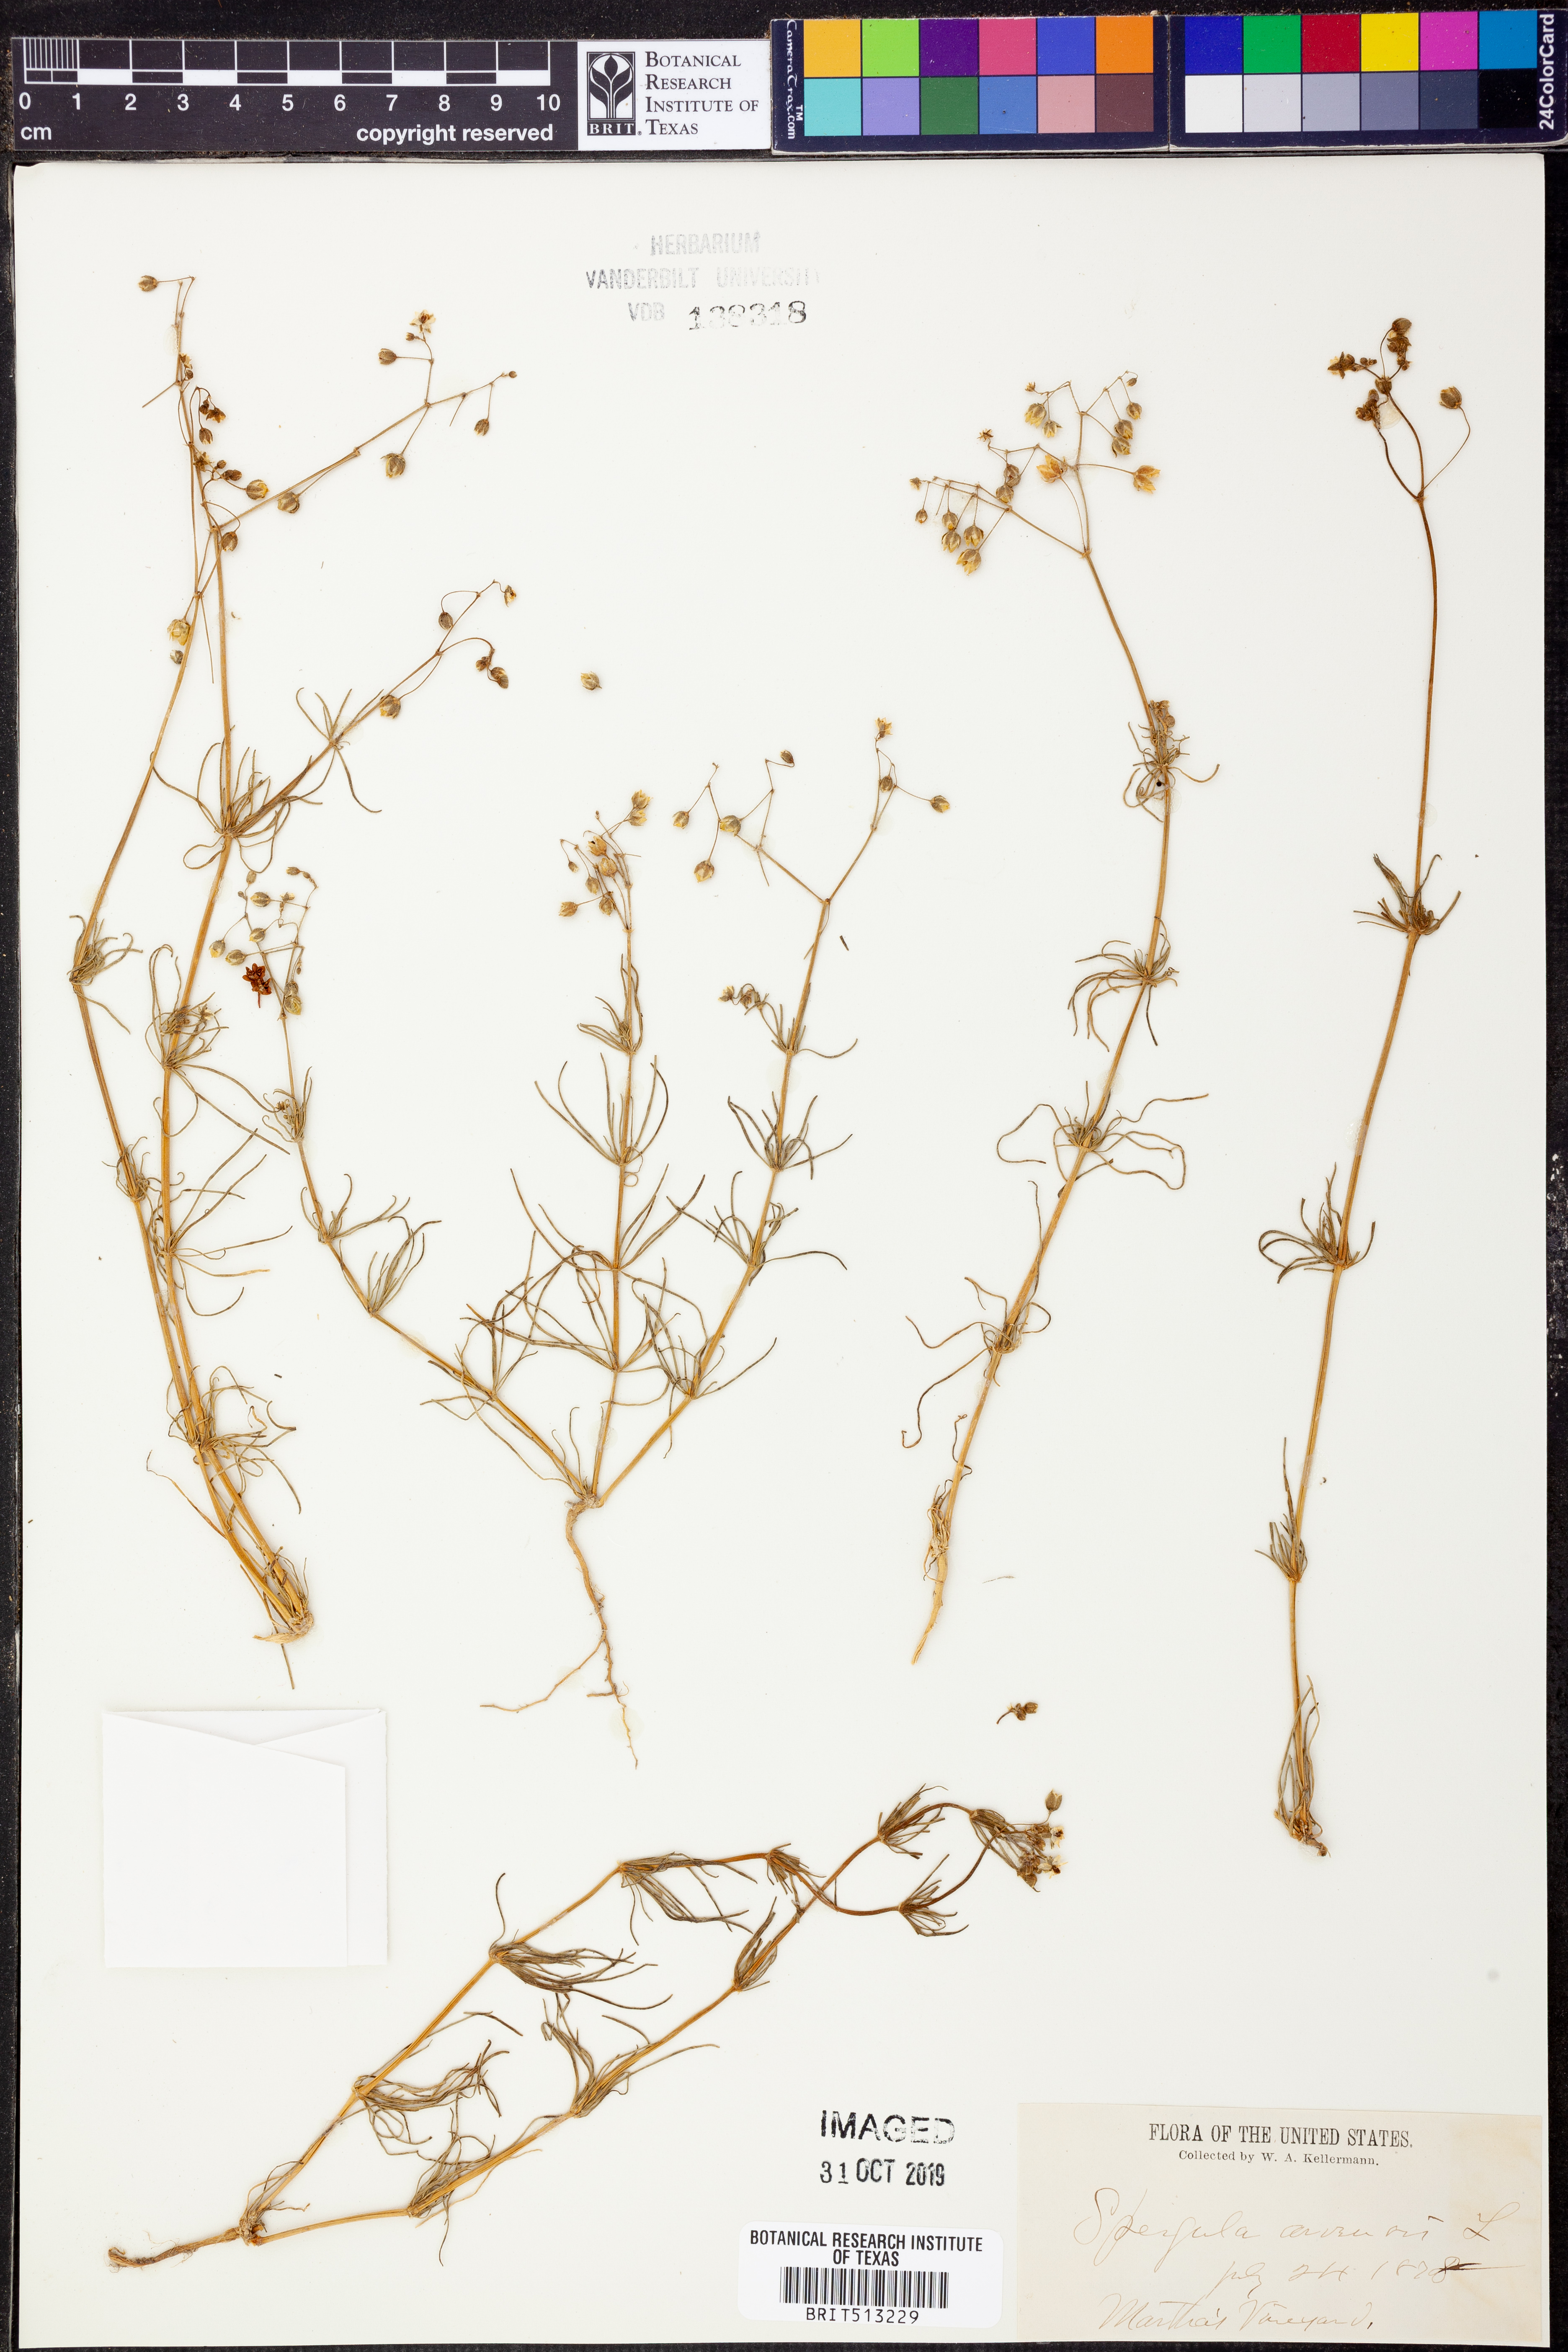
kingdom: Plantae
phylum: Tracheophyta
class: Magnoliopsida
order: Caryophyllales
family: Caryophyllaceae
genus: Spergula
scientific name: Spergula arvensis
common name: Corn spurrey
